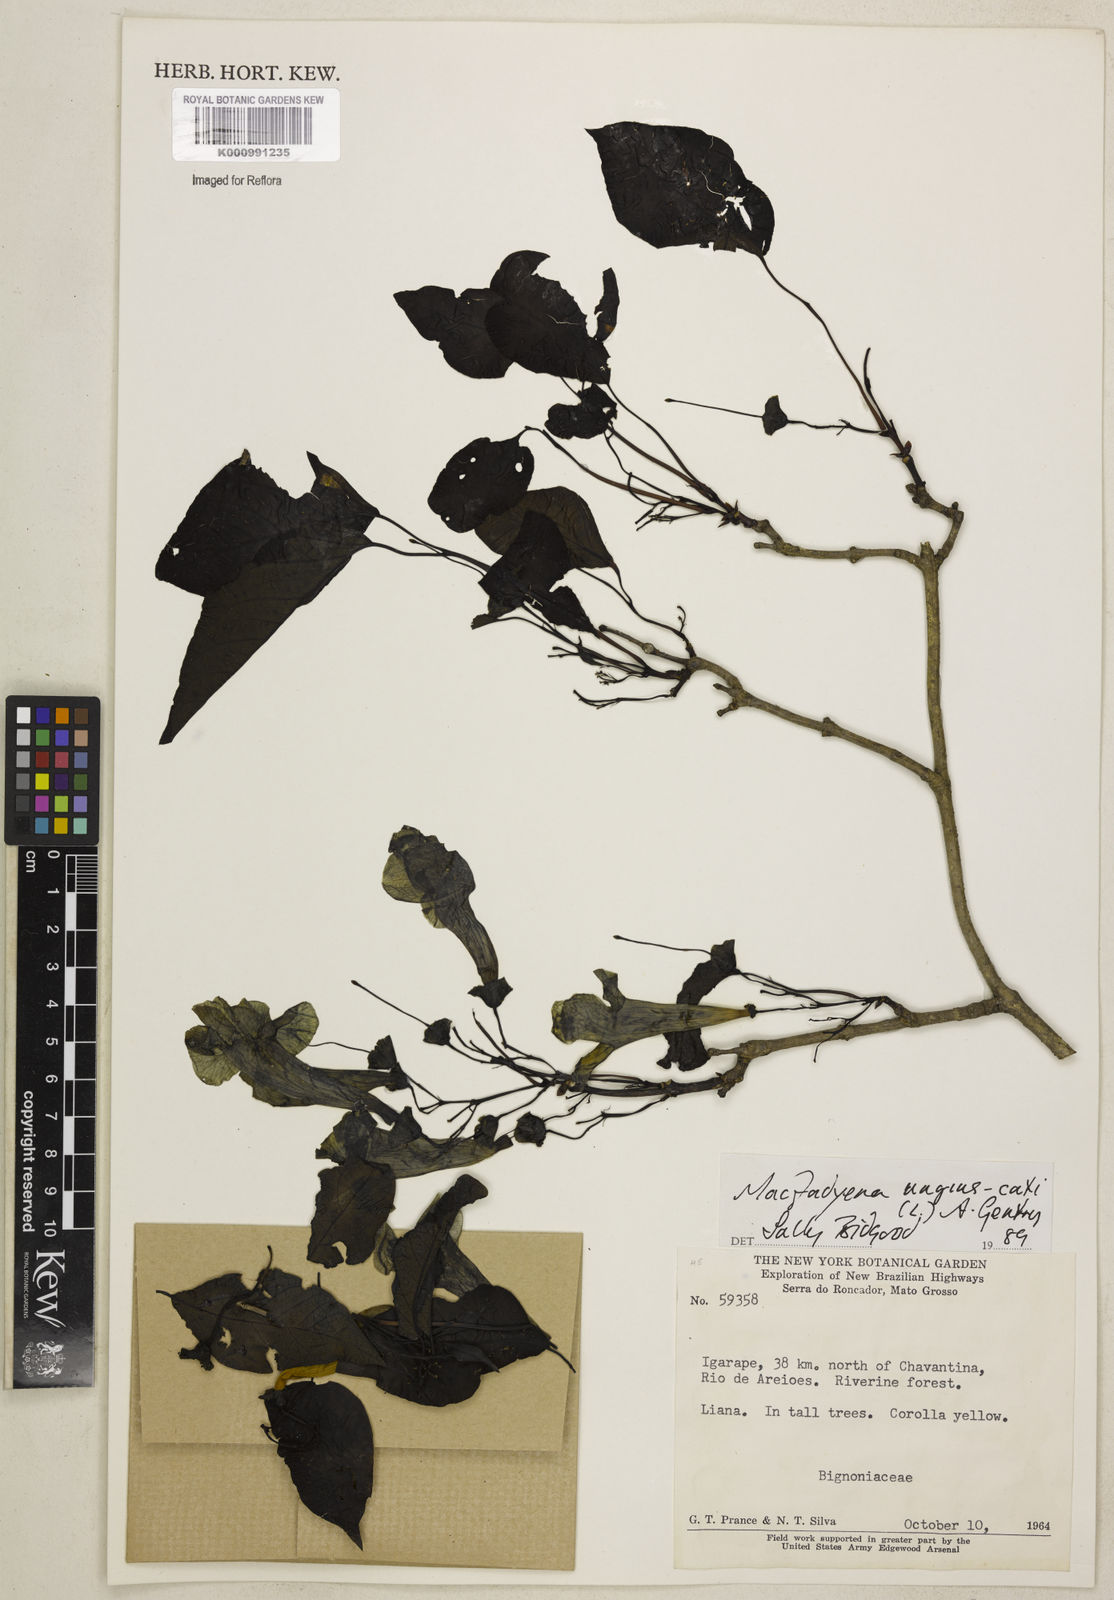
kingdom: Plantae
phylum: Tracheophyta
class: Magnoliopsida
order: Lamiales
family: Bignoniaceae
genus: Dolichandra
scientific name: Dolichandra unguis-cati
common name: Catclaw vine
